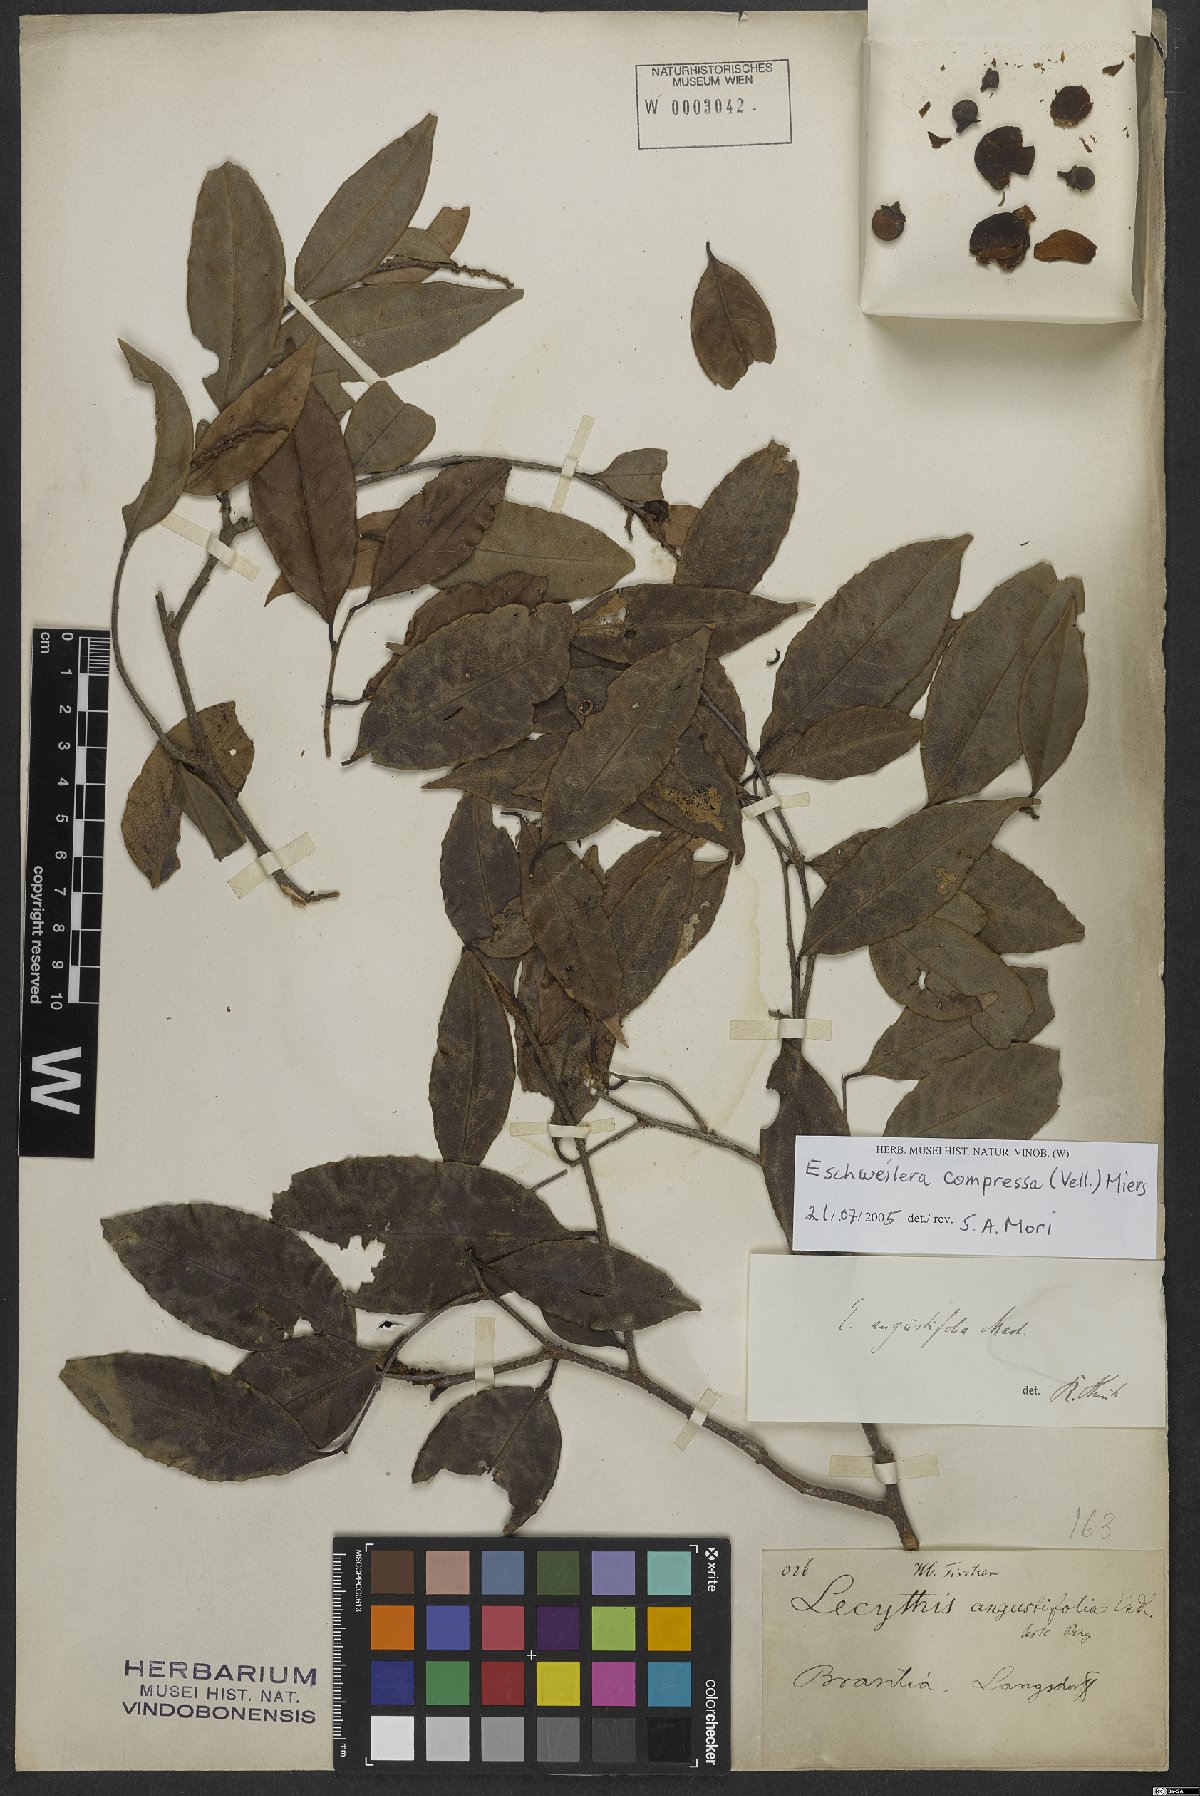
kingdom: Plantae
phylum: Tracheophyta
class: Magnoliopsida
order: Ericales
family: Lecythidaceae
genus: Eschweilera
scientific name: Eschweilera compressa
